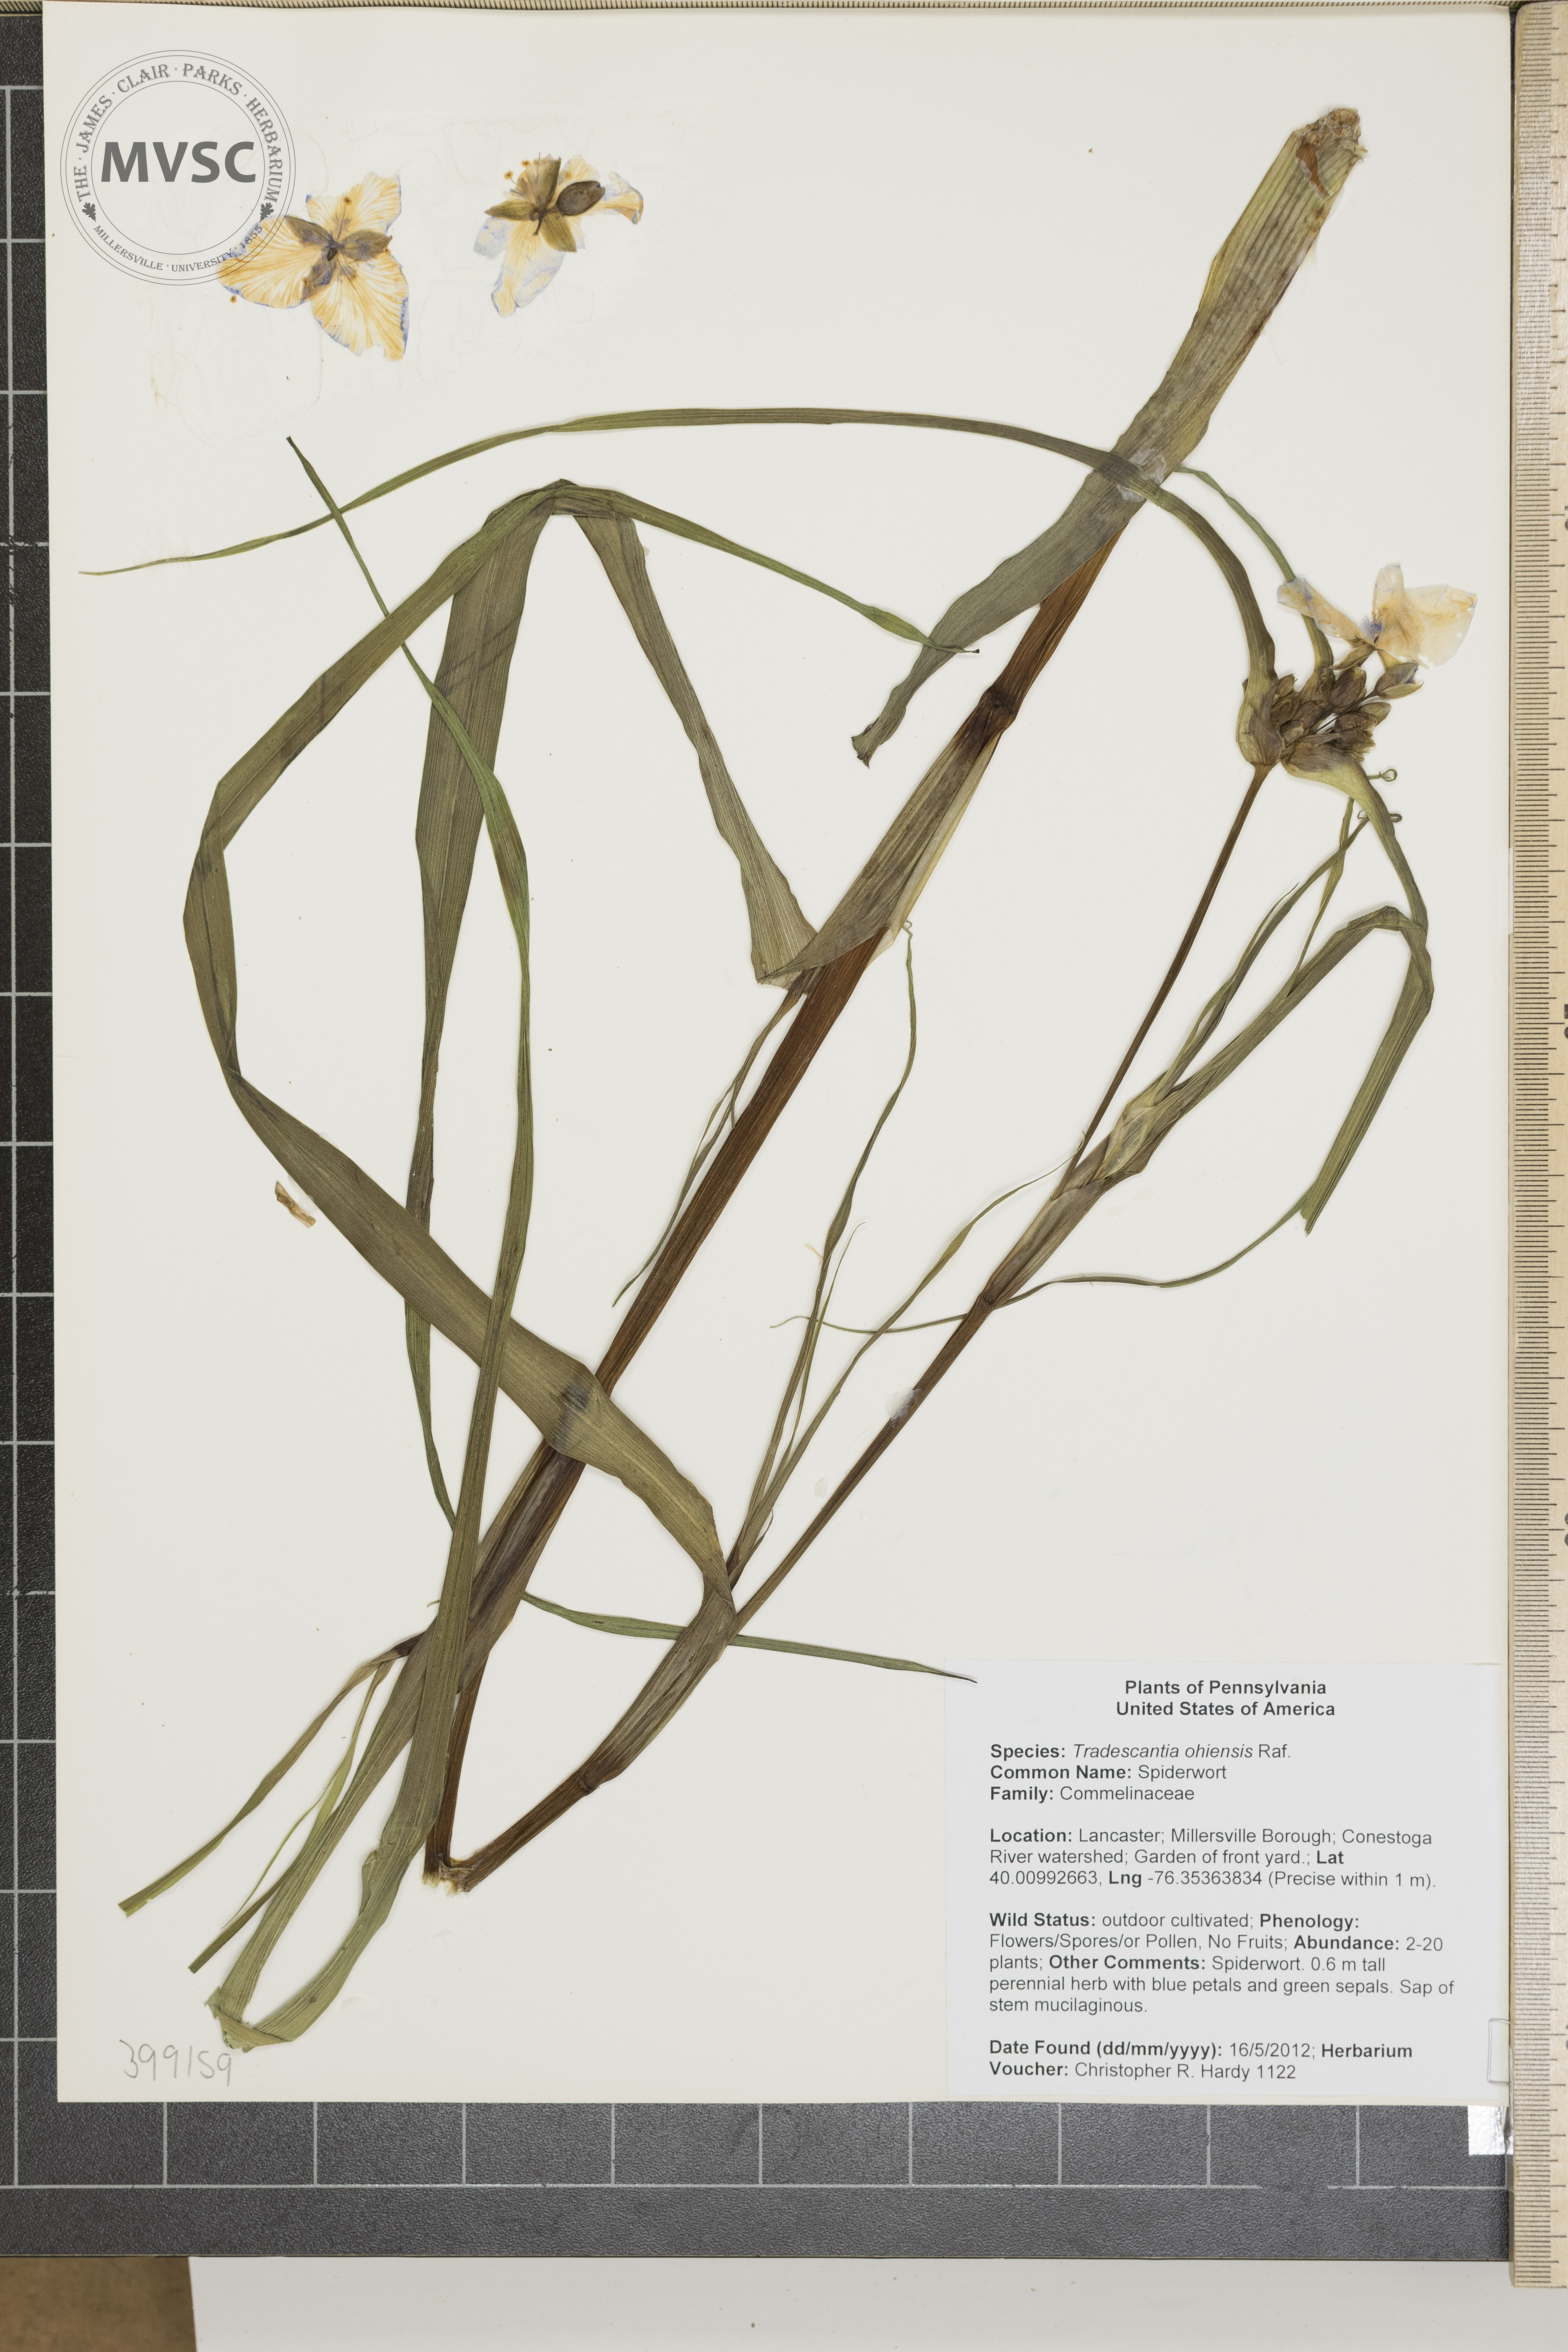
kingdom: Plantae
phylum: Tracheophyta
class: Liliopsida
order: Commelinales
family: Commelinaceae
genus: Tradescantia
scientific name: Tradescantia ohiensis
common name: Spiderwort
